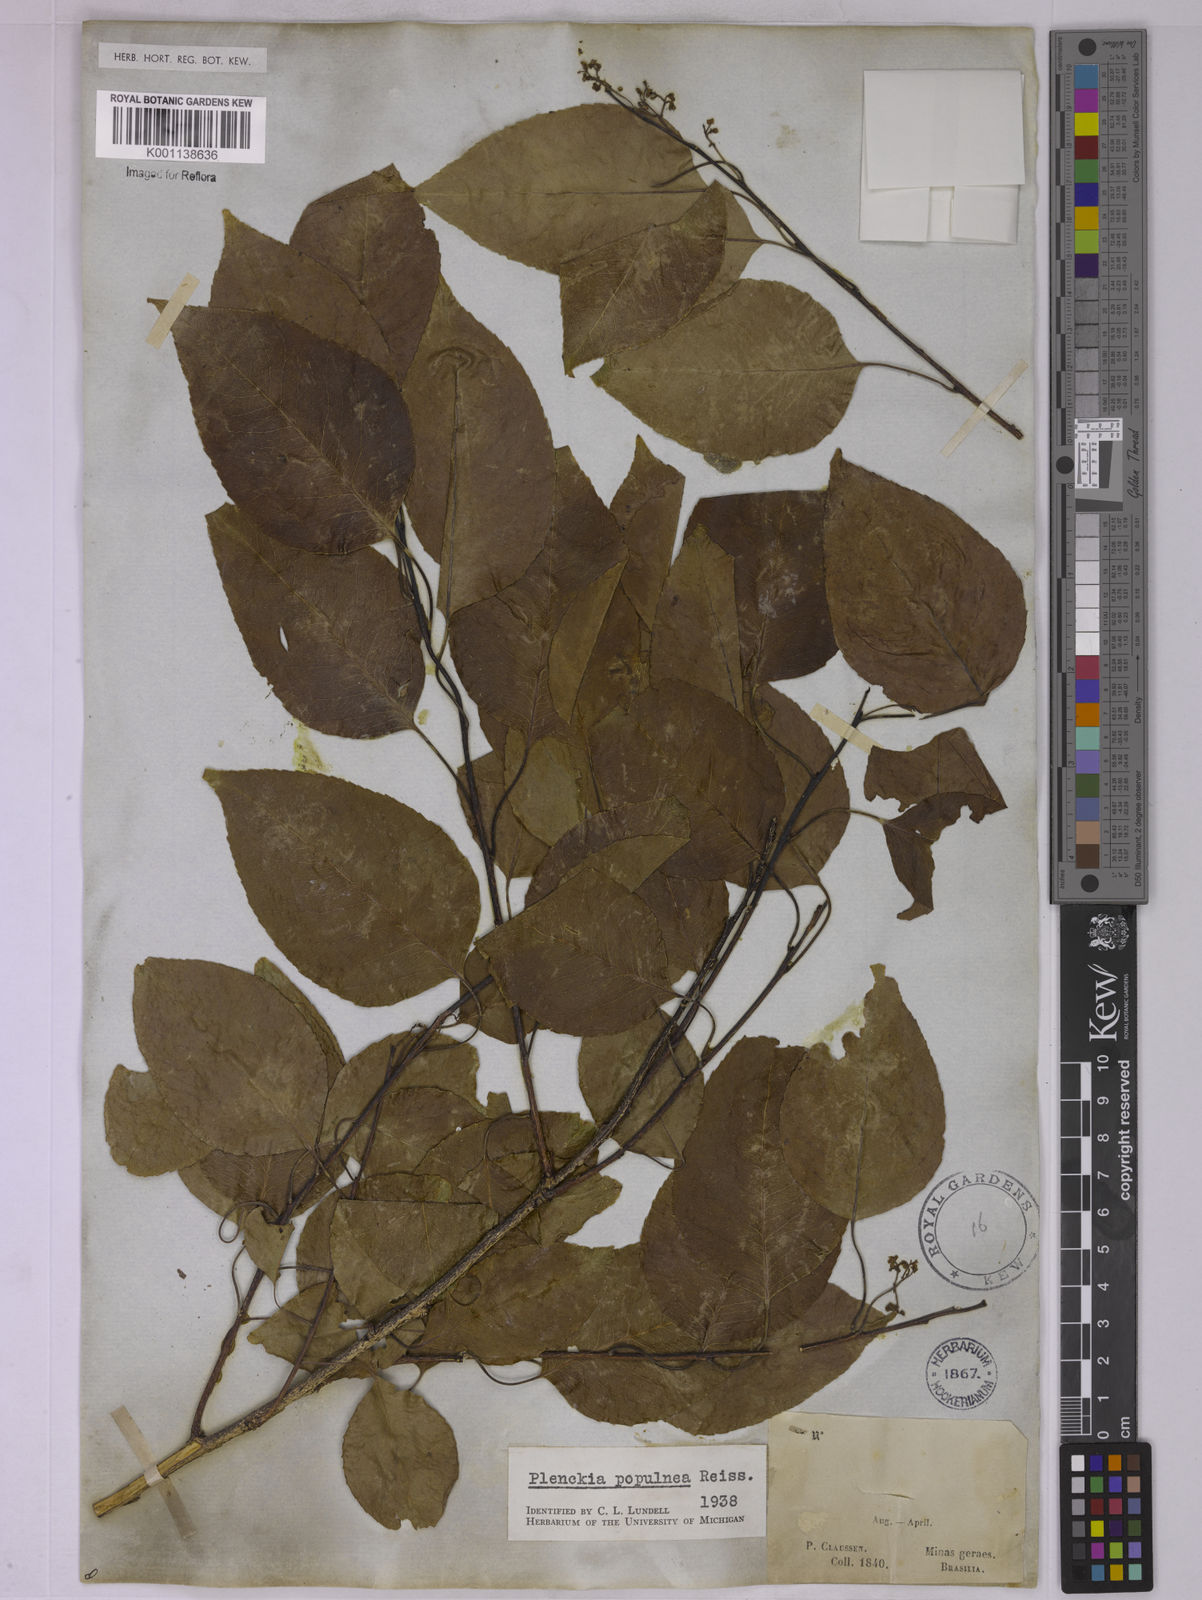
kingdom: Plantae
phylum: Tracheophyta
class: Magnoliopsida
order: Celastrales
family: Celastraceae
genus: Plenckia
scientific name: Plenckia populnea
